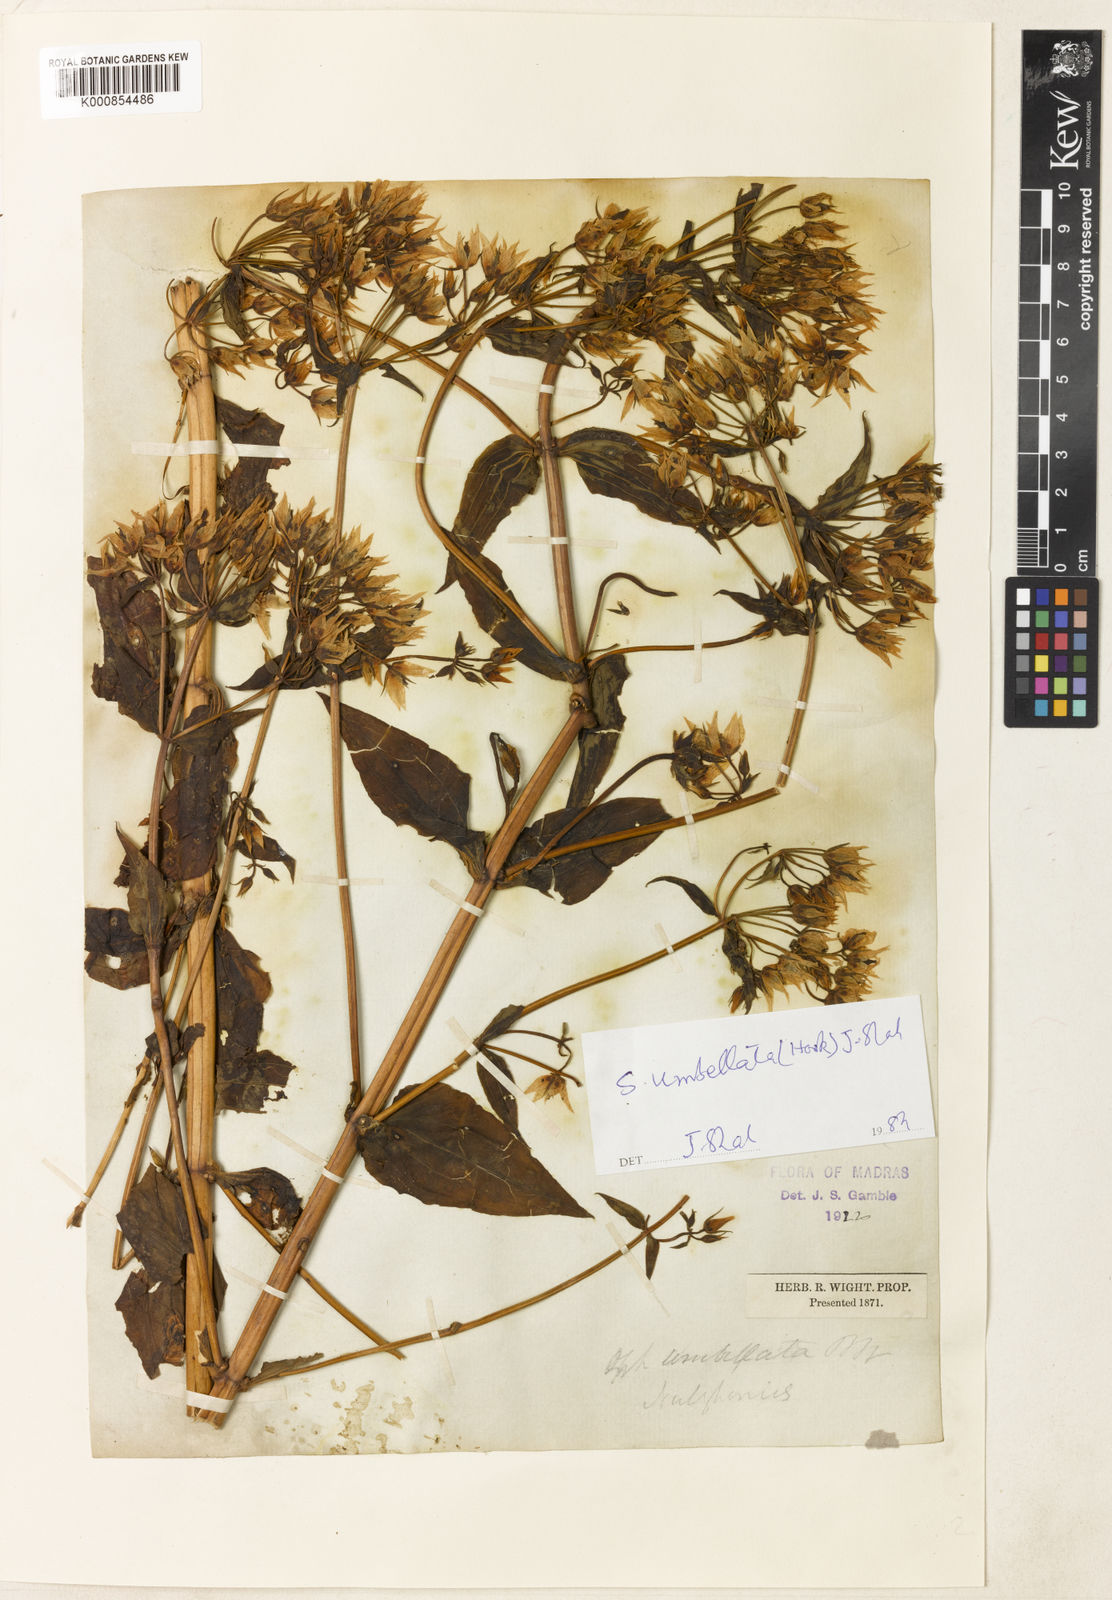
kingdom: Plantae
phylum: Tracheophyta
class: Magnoliopsida
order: Gentianales
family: Gentianaceae
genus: Swertia
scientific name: Swertia
